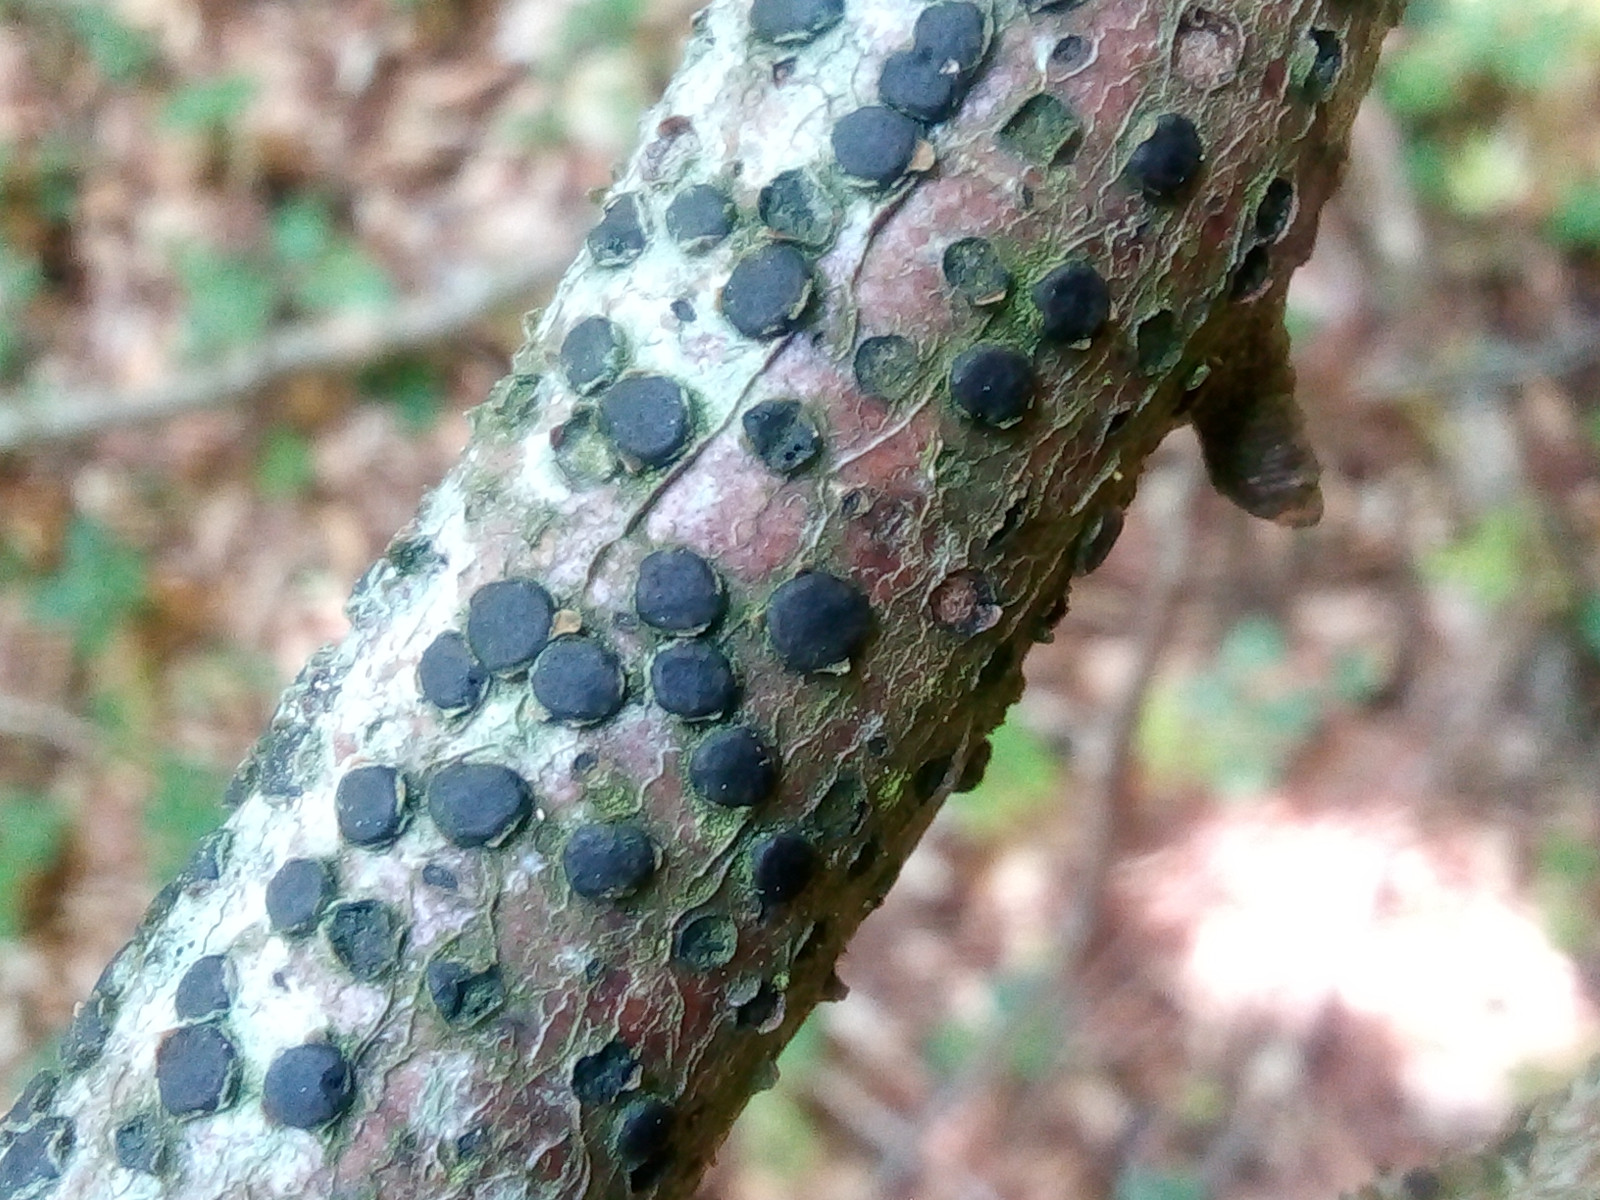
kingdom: Fungi
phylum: Ascomycota
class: Sordariomycetes
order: Xylariales
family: Diatrypaceae
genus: Diatrype
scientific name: Diatrype disciformis
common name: kant-kulskorpe
